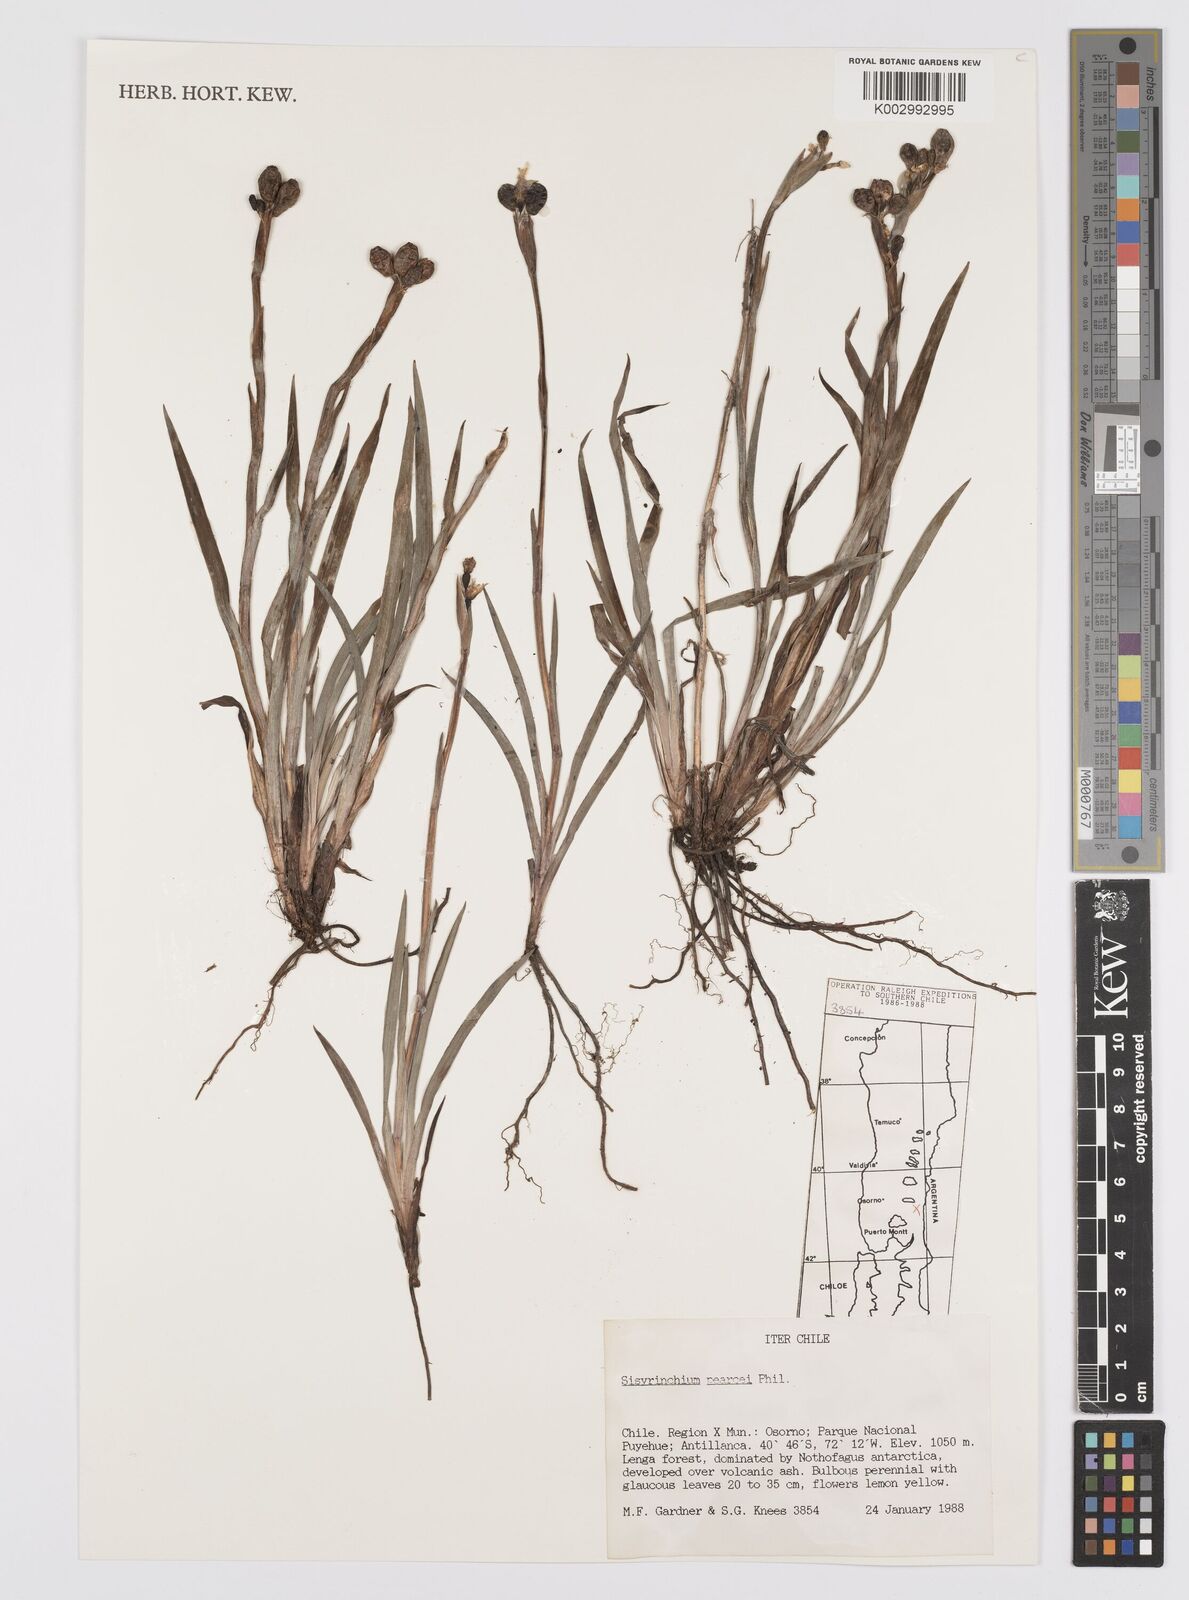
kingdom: Plantae
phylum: Tracheophyta
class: Liliopsida
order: Asparagales
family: Iridaceae
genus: Sisyrinchium
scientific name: Sisyrinchium pearcei
